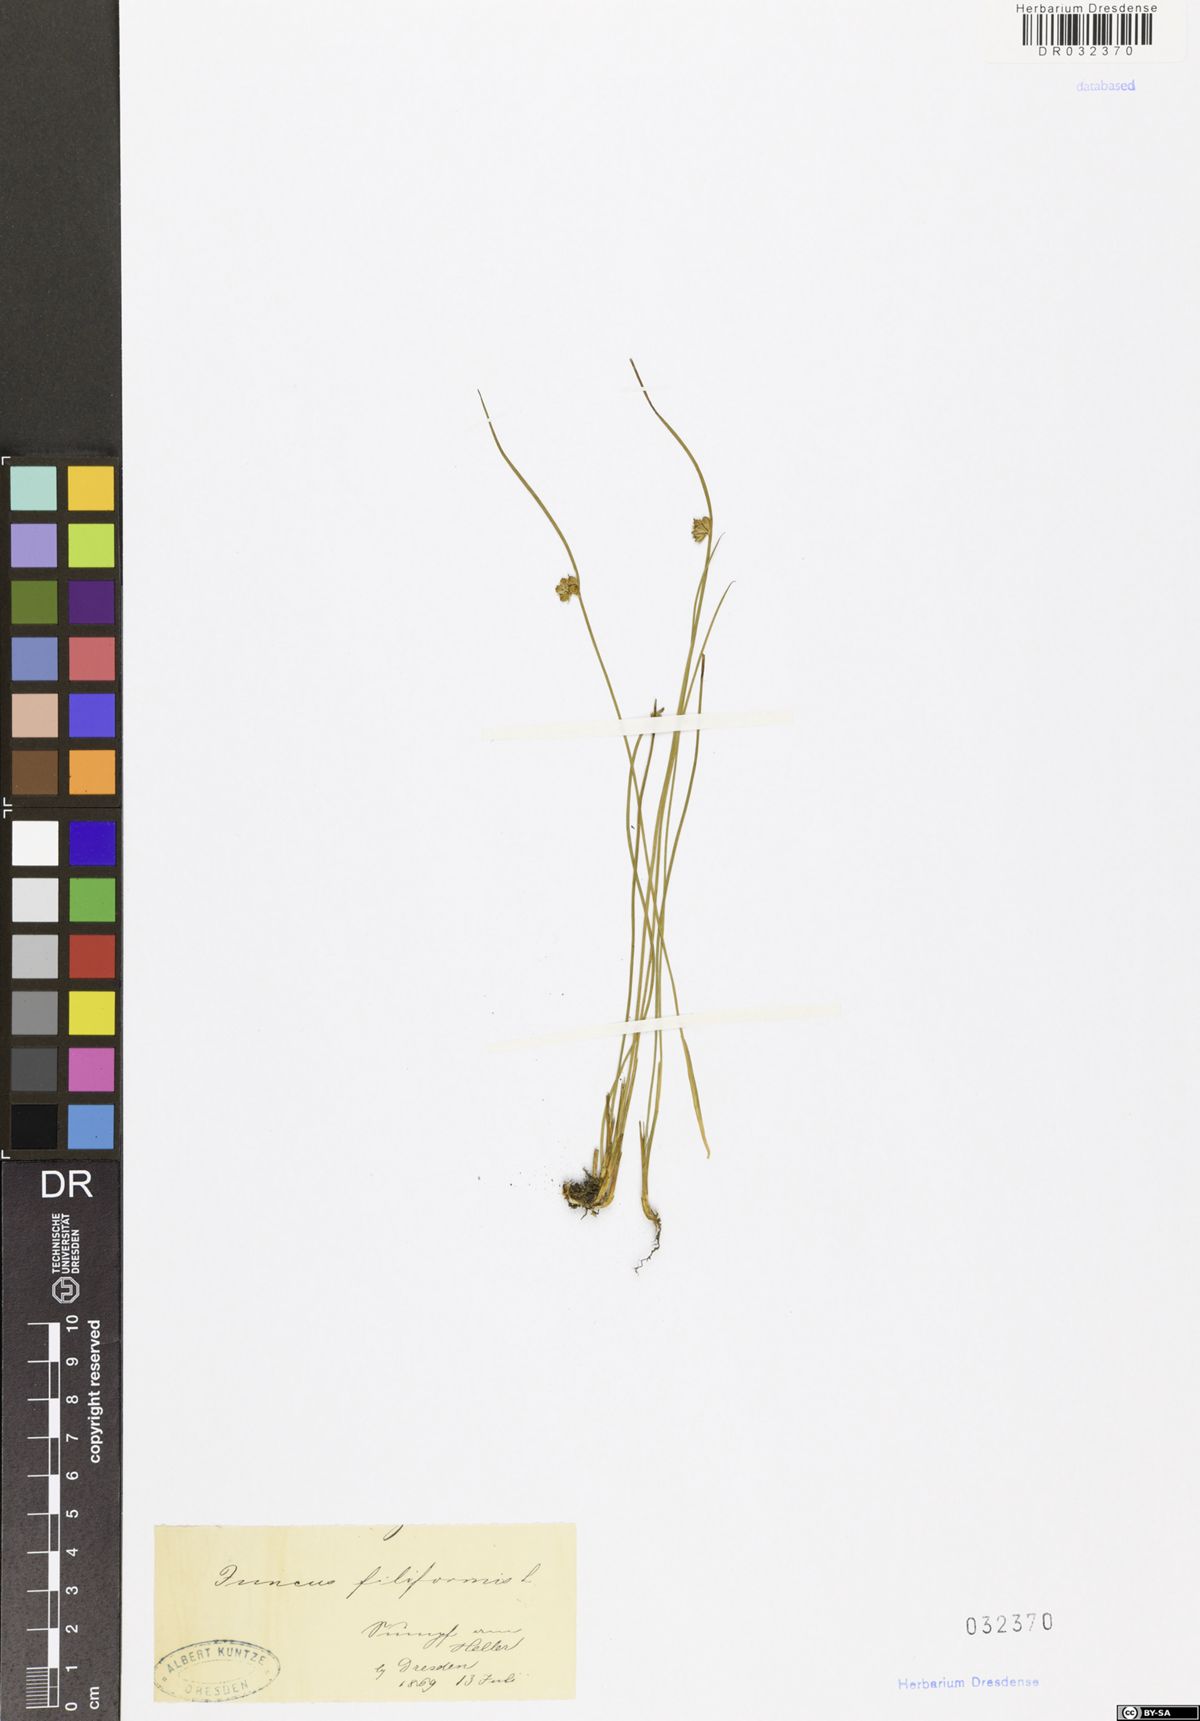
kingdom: Plantae
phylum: Tracheophyta
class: Liliopsida
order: Poales
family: Juncaceae
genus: Juncus
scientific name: Juncus inflexus
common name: Hard rush
